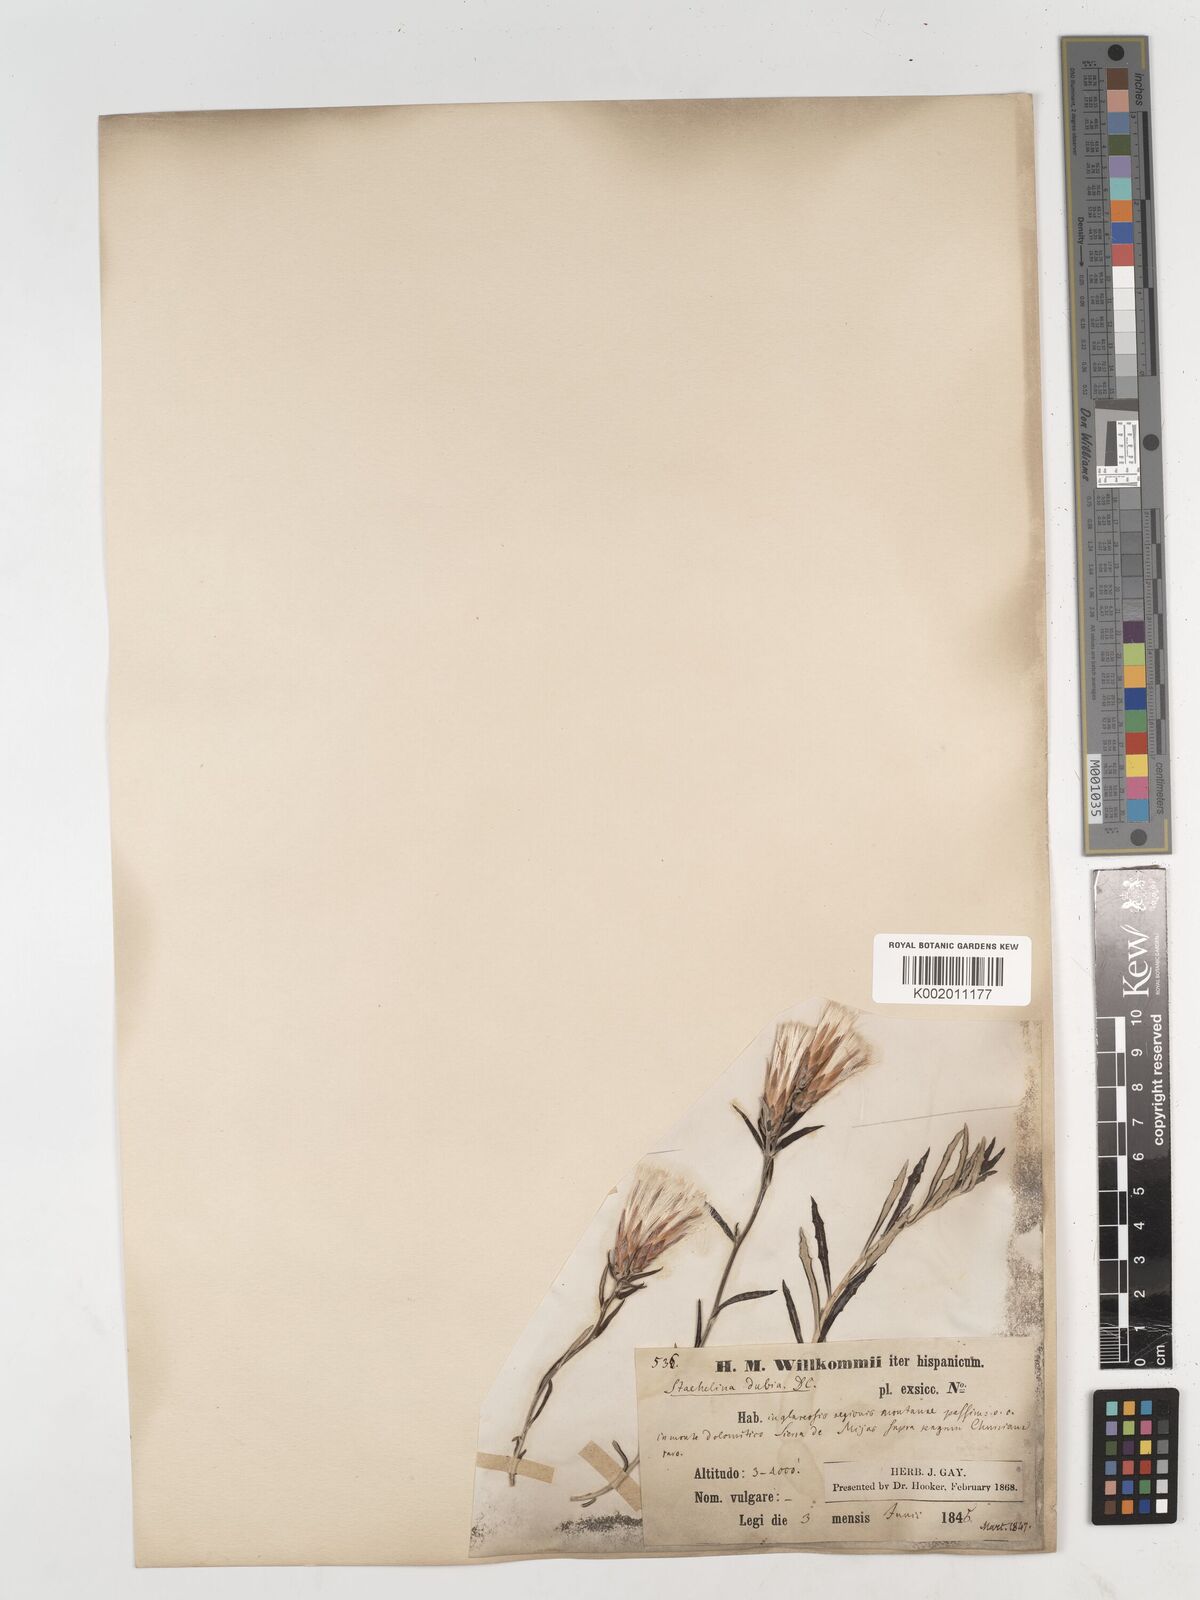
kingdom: Plantae
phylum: Tracheophyta
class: Magnoliopsida
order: Asterales
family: Asteraceae
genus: Staehelina
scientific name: Staehelina dubia
